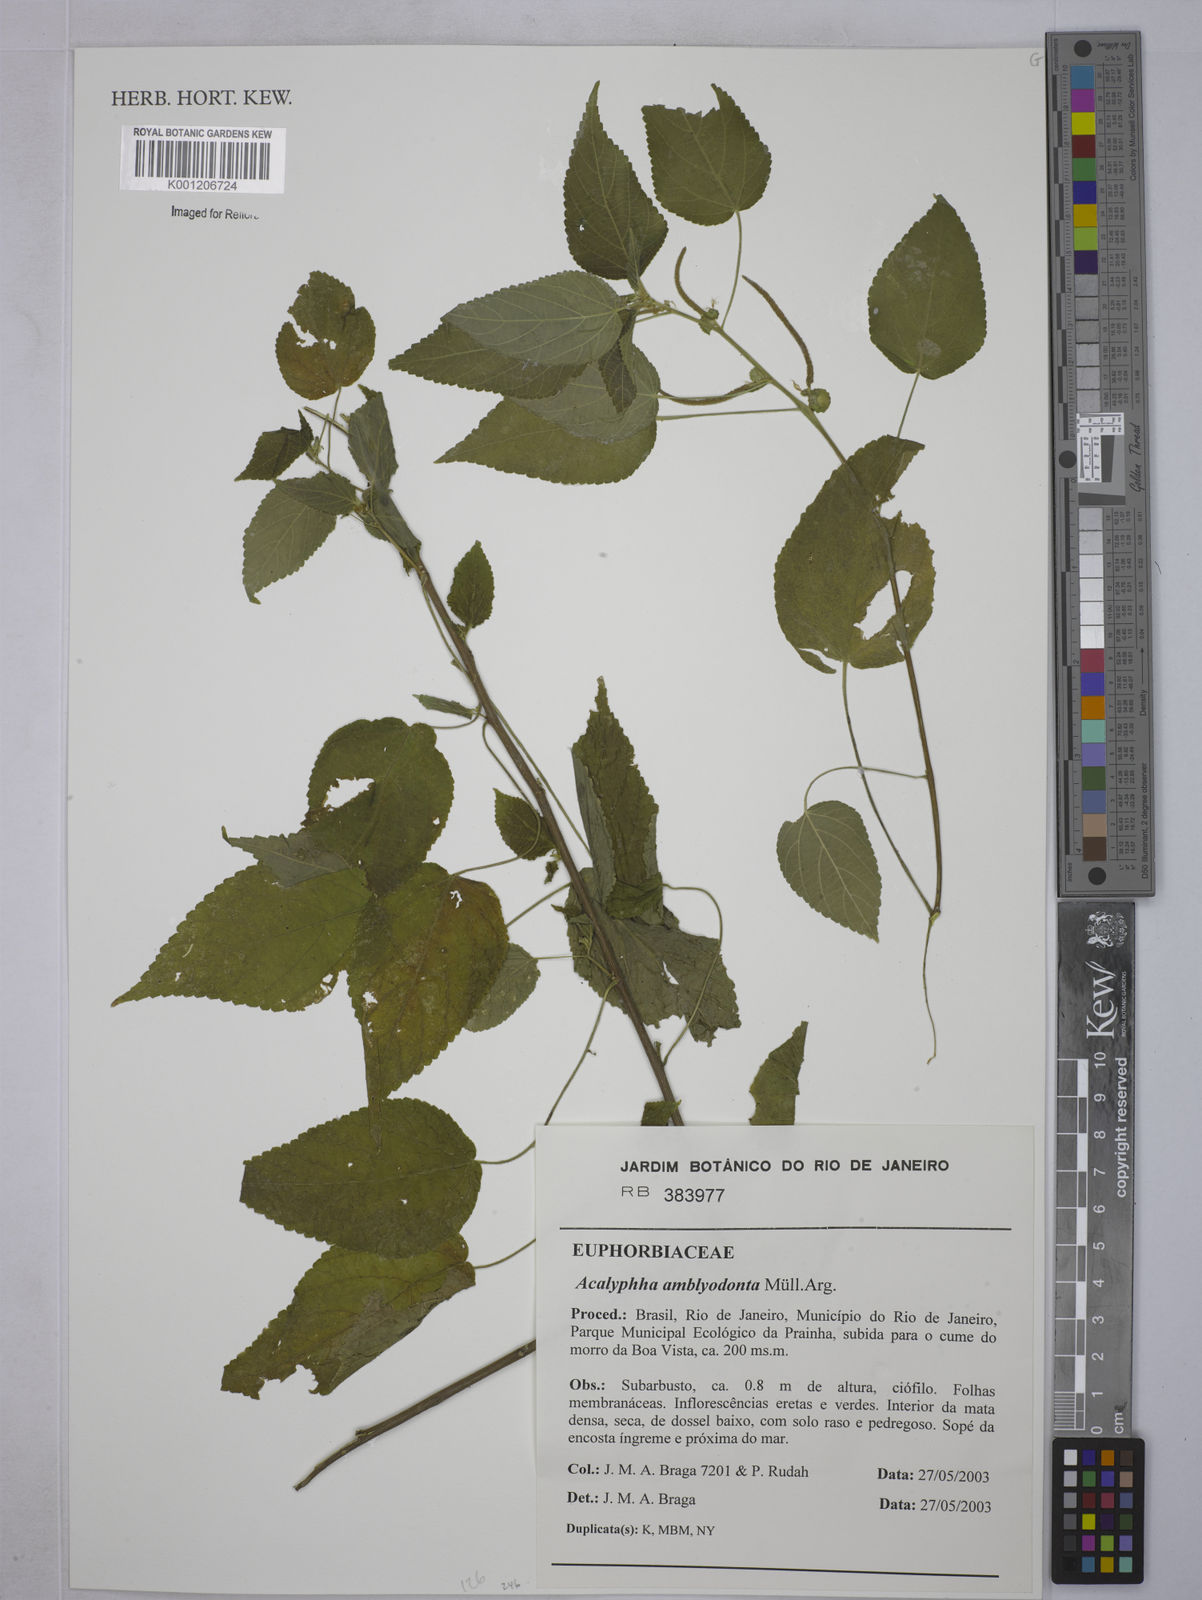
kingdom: Plantae
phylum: Tracheophyta
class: Magnoliopsida
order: Malpighiales
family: Euphorbiaceae
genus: Acalypha
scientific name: Acalypha
